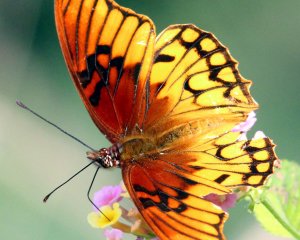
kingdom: Animalia
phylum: Arthropoda
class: Insecta
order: Lepidoptera
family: Nymphalidae
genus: Dione
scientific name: Dione moneta
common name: Mexican Silverspot
